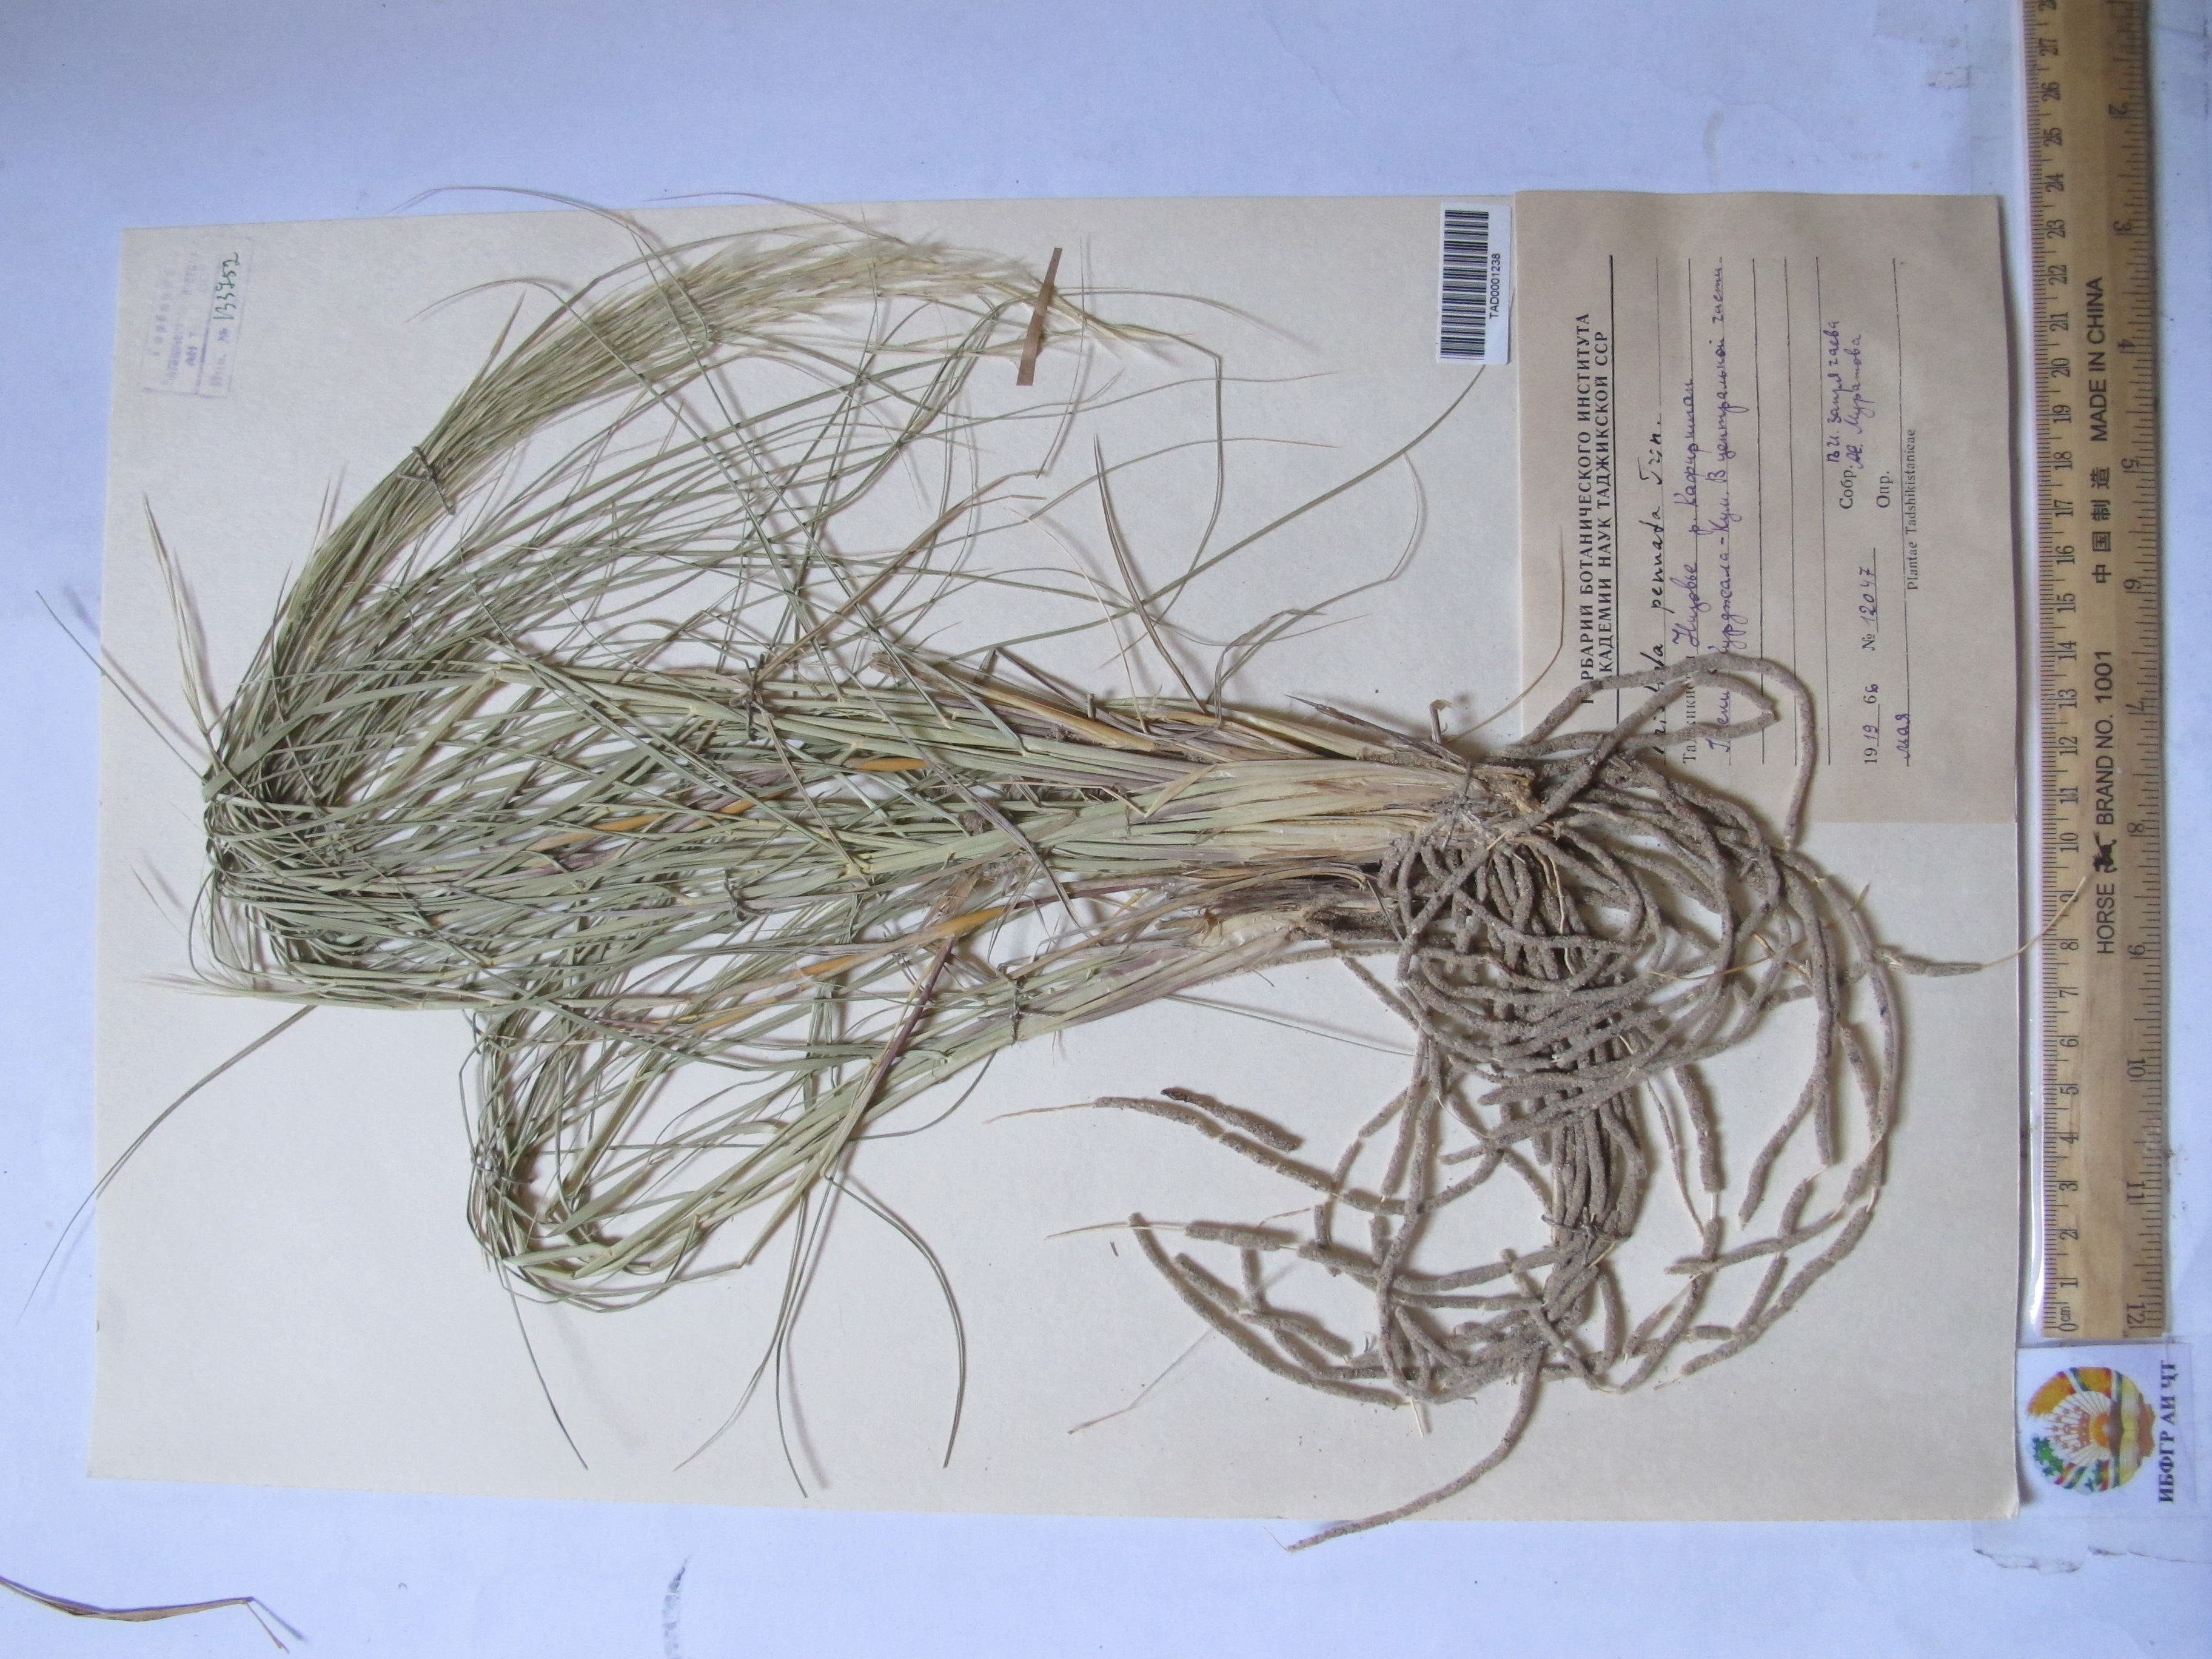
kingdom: Plantae
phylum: Tracheophyta
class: Liliopsida
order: Poales
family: Poaceae
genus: Stipagrostis
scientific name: Stipagrostis pennata
